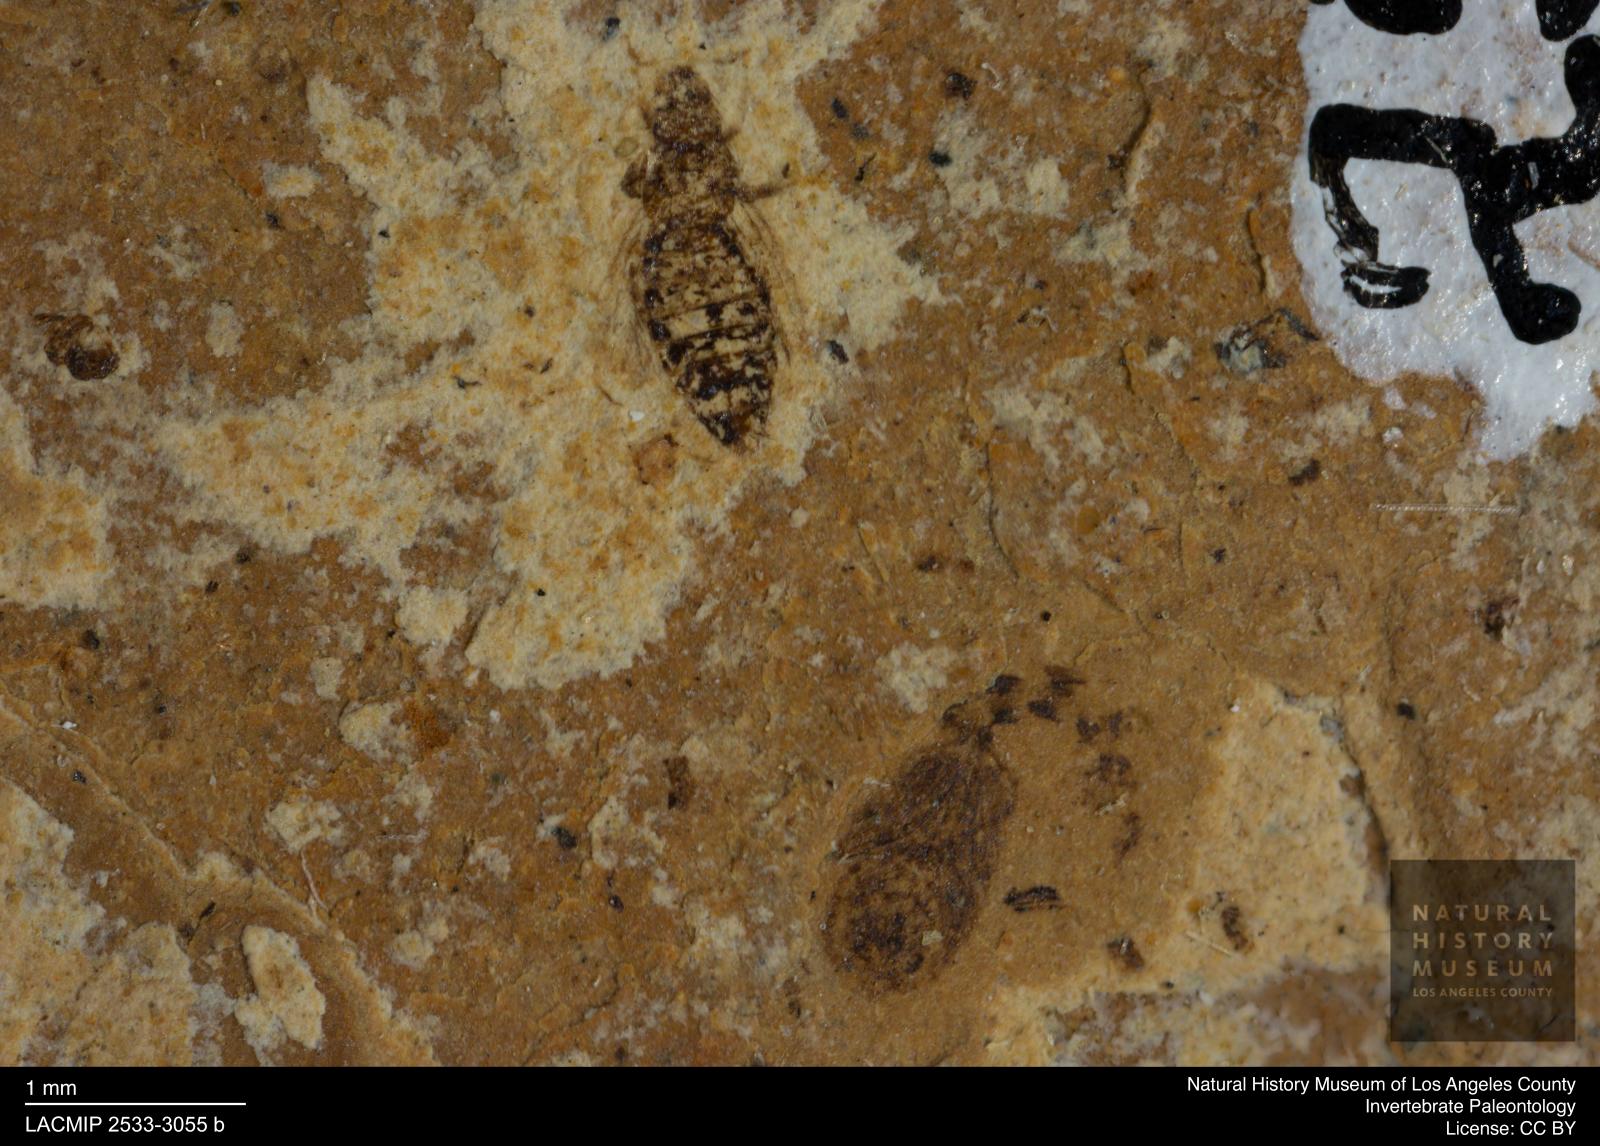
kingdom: Animalia
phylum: Arthropoda
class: Insecta
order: Thysanoptera
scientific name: Thysanoptera
